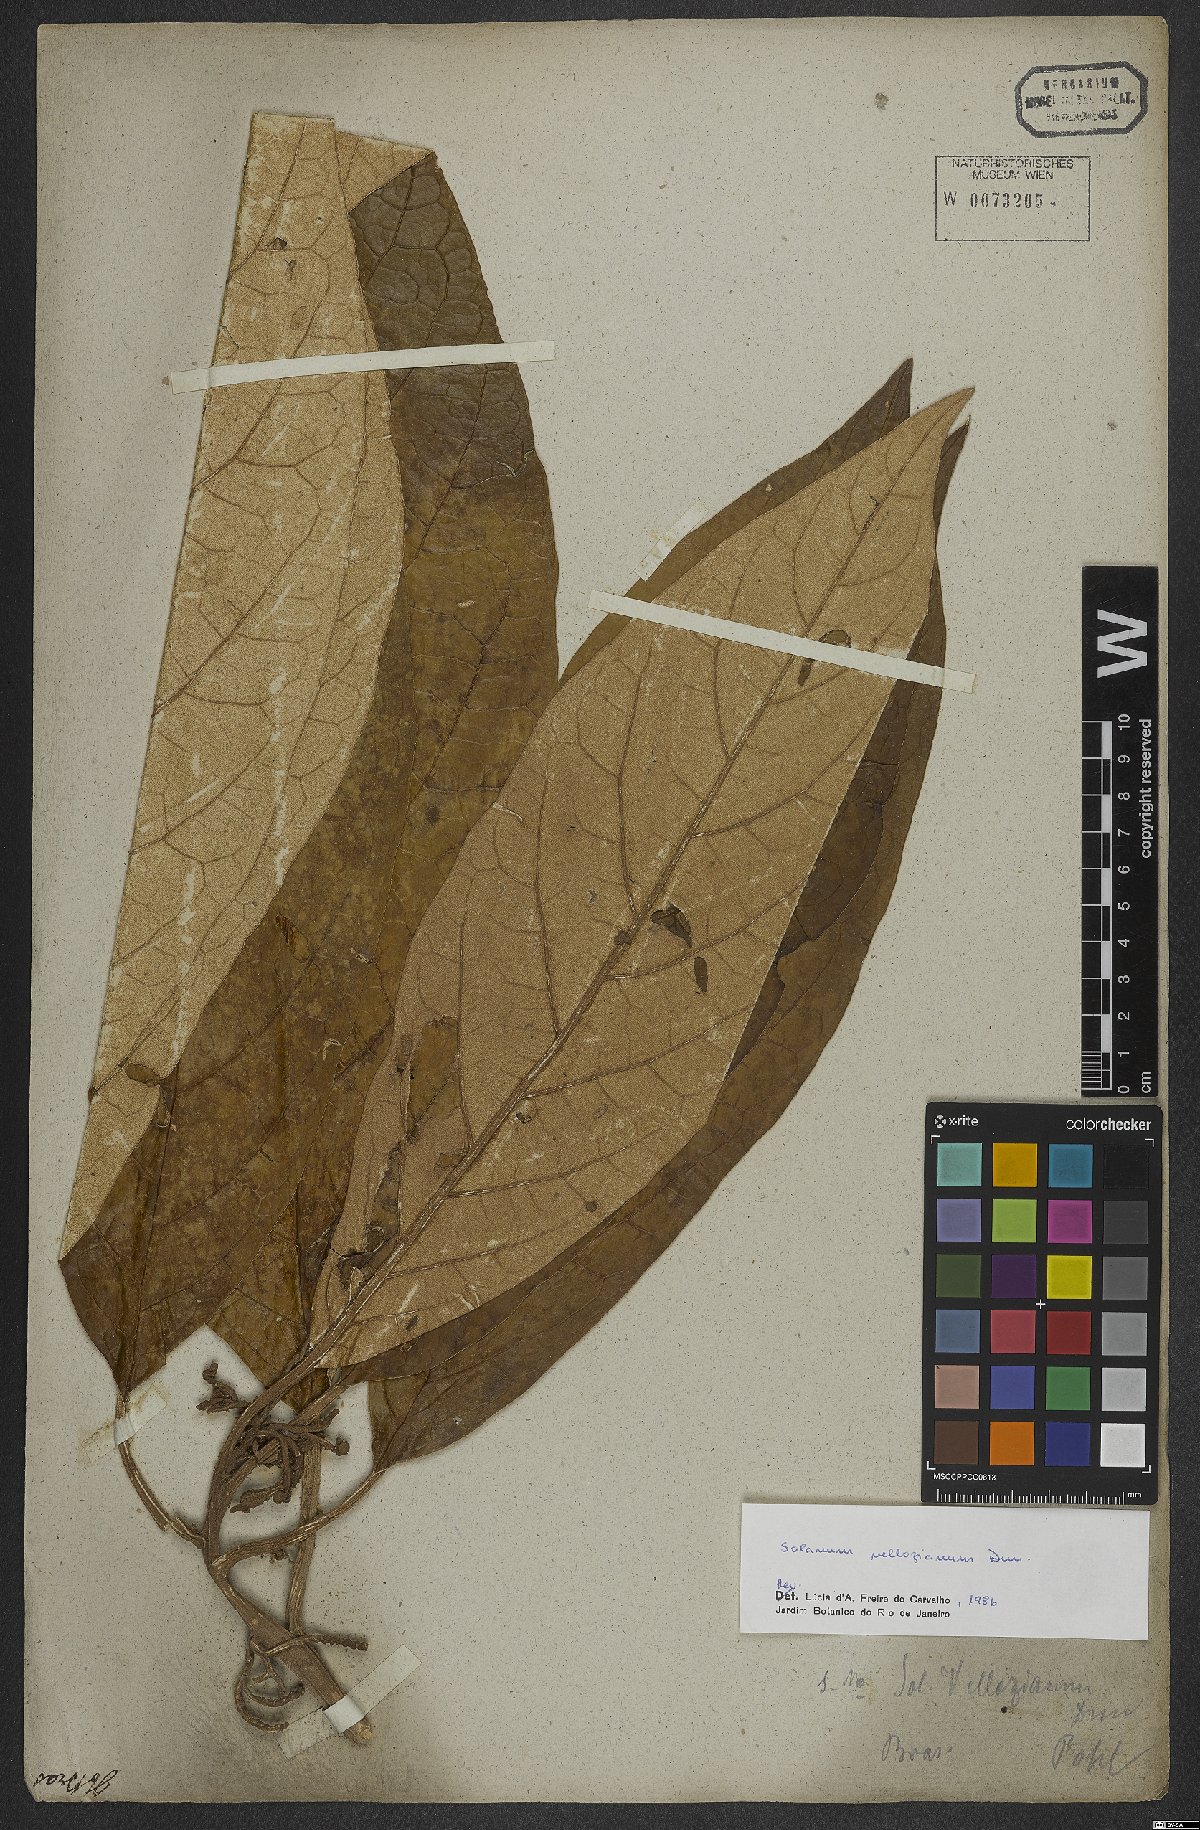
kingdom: Plantae
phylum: Tracheophyta
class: Magnoliopsida
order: Solanales
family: Solanaceae
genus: Solanum
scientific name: Solanum vellozianum
